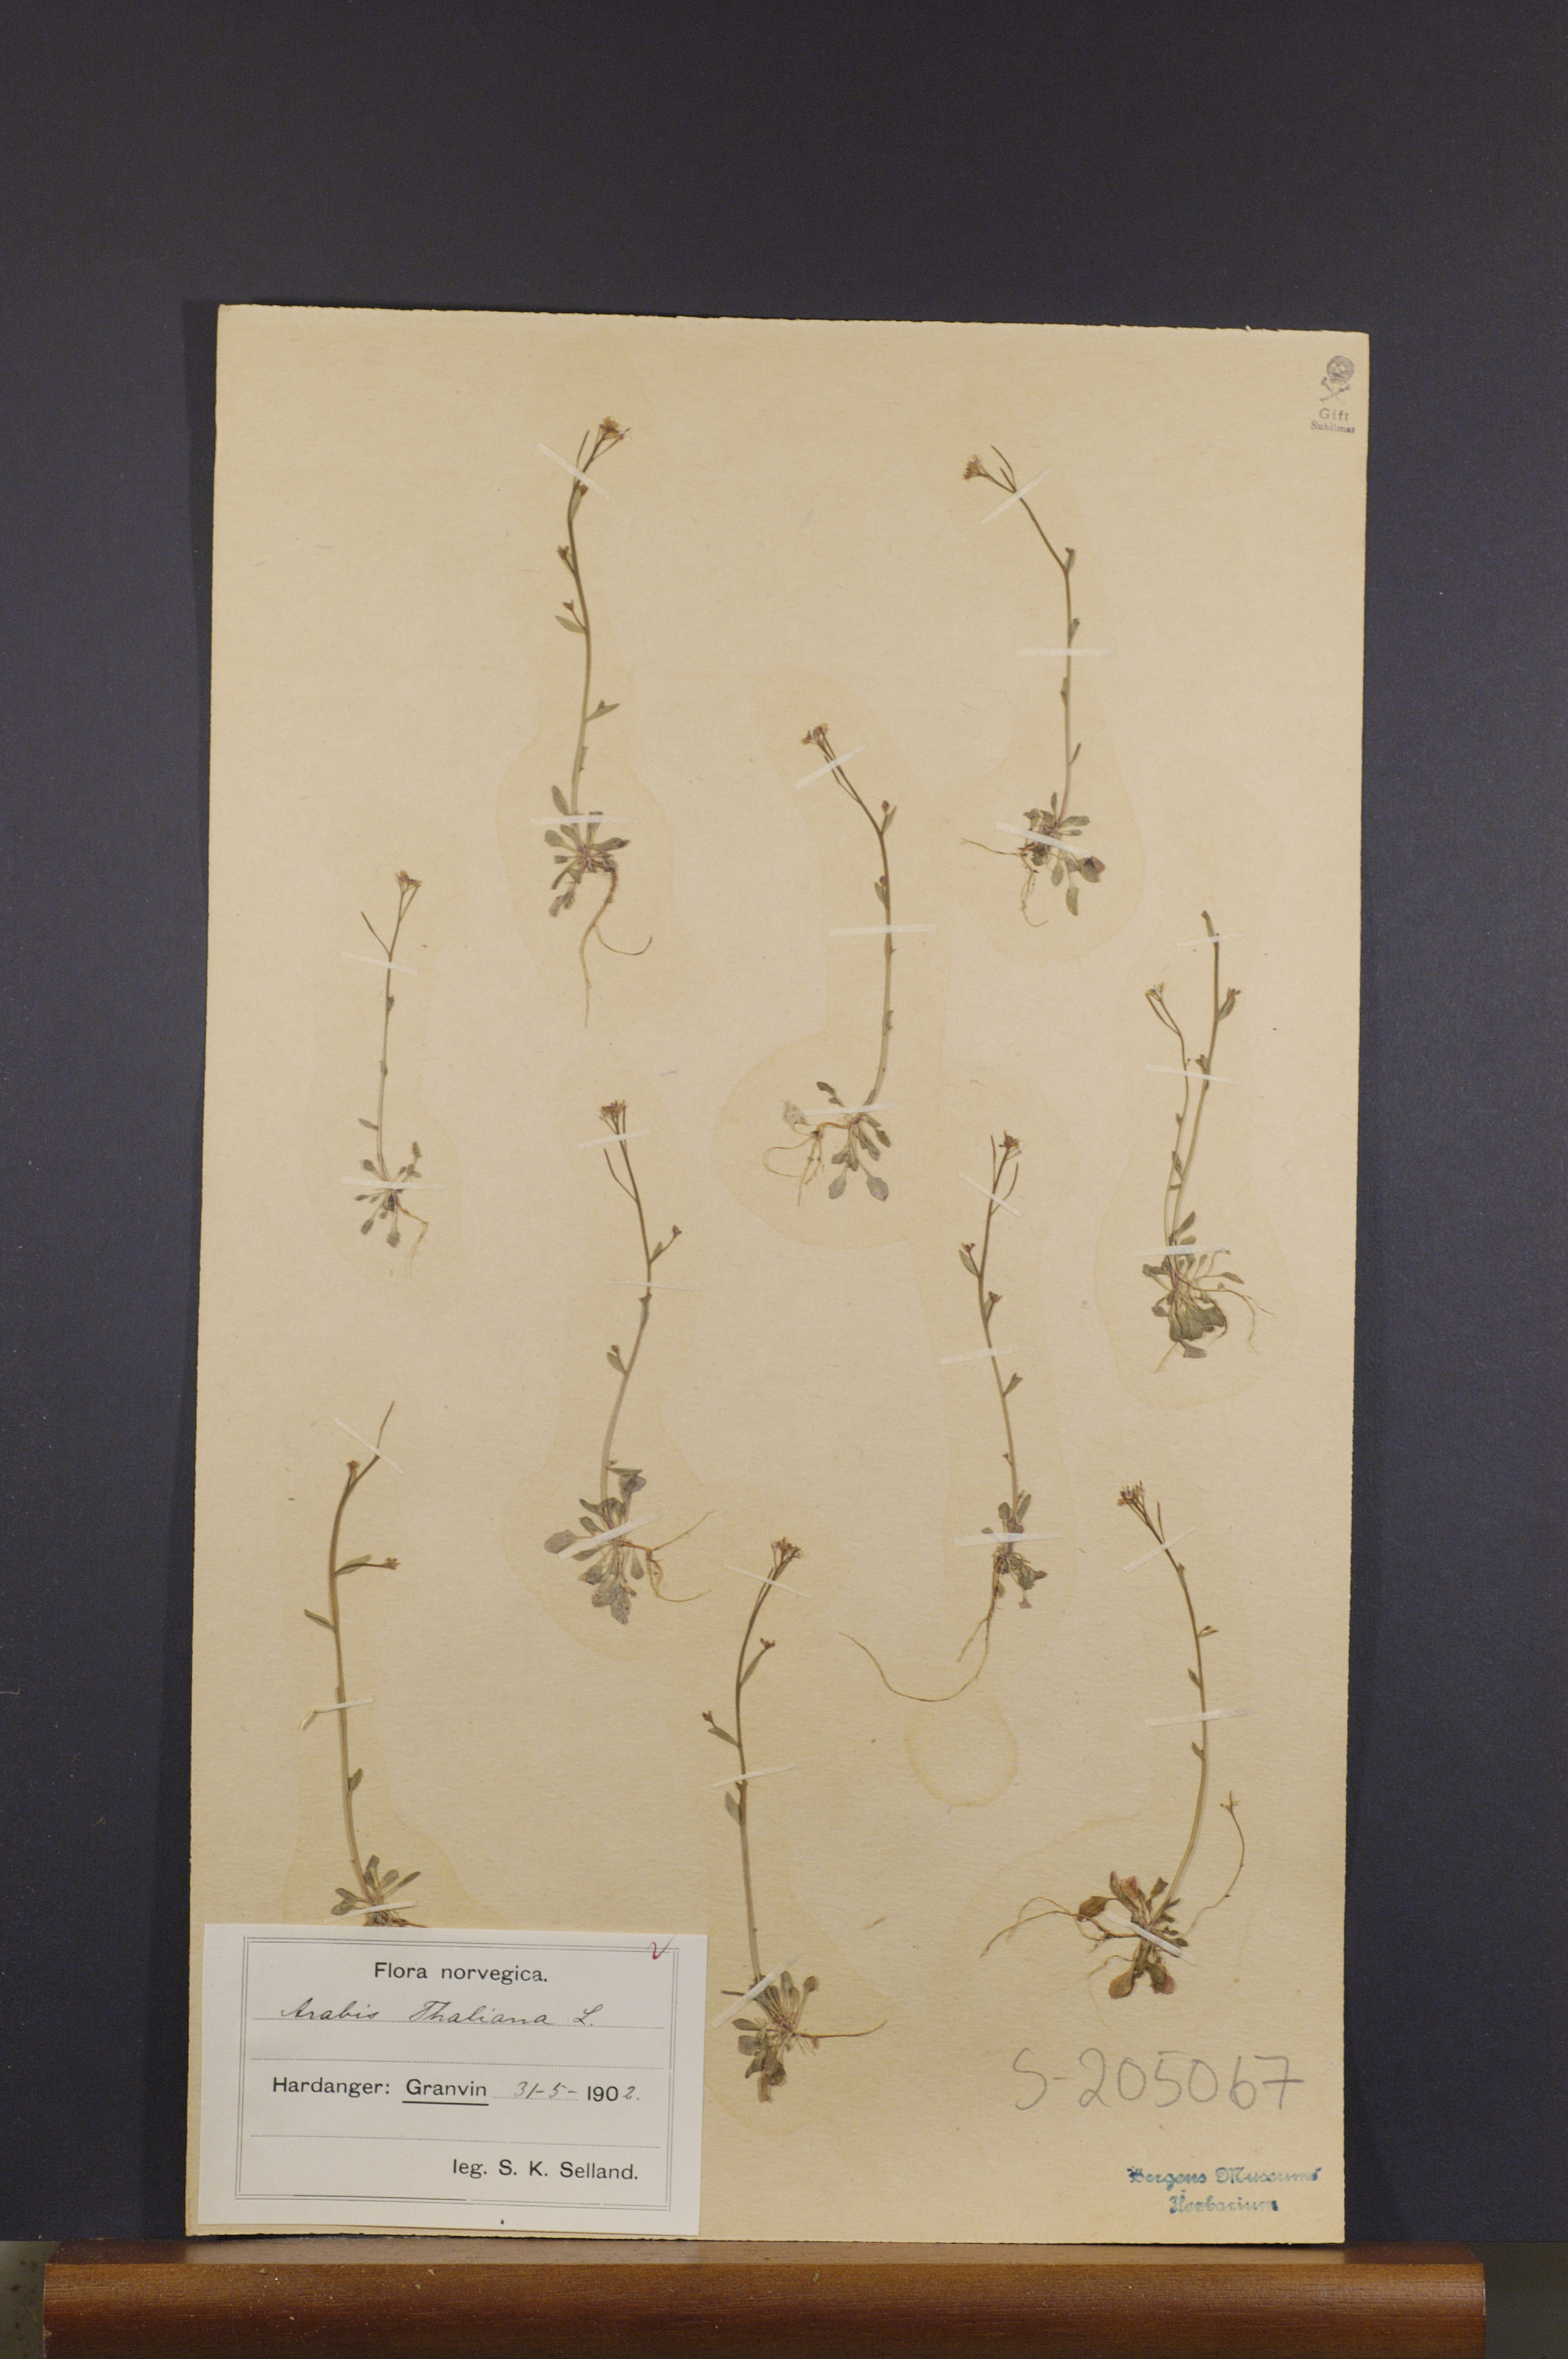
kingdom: Plantae
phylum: Tracheophyta
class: Magnoliopsida
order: Brassicales
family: Brassicaceae
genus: Arabidopsis
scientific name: Arabidopsis thaliana
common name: Thale cress
